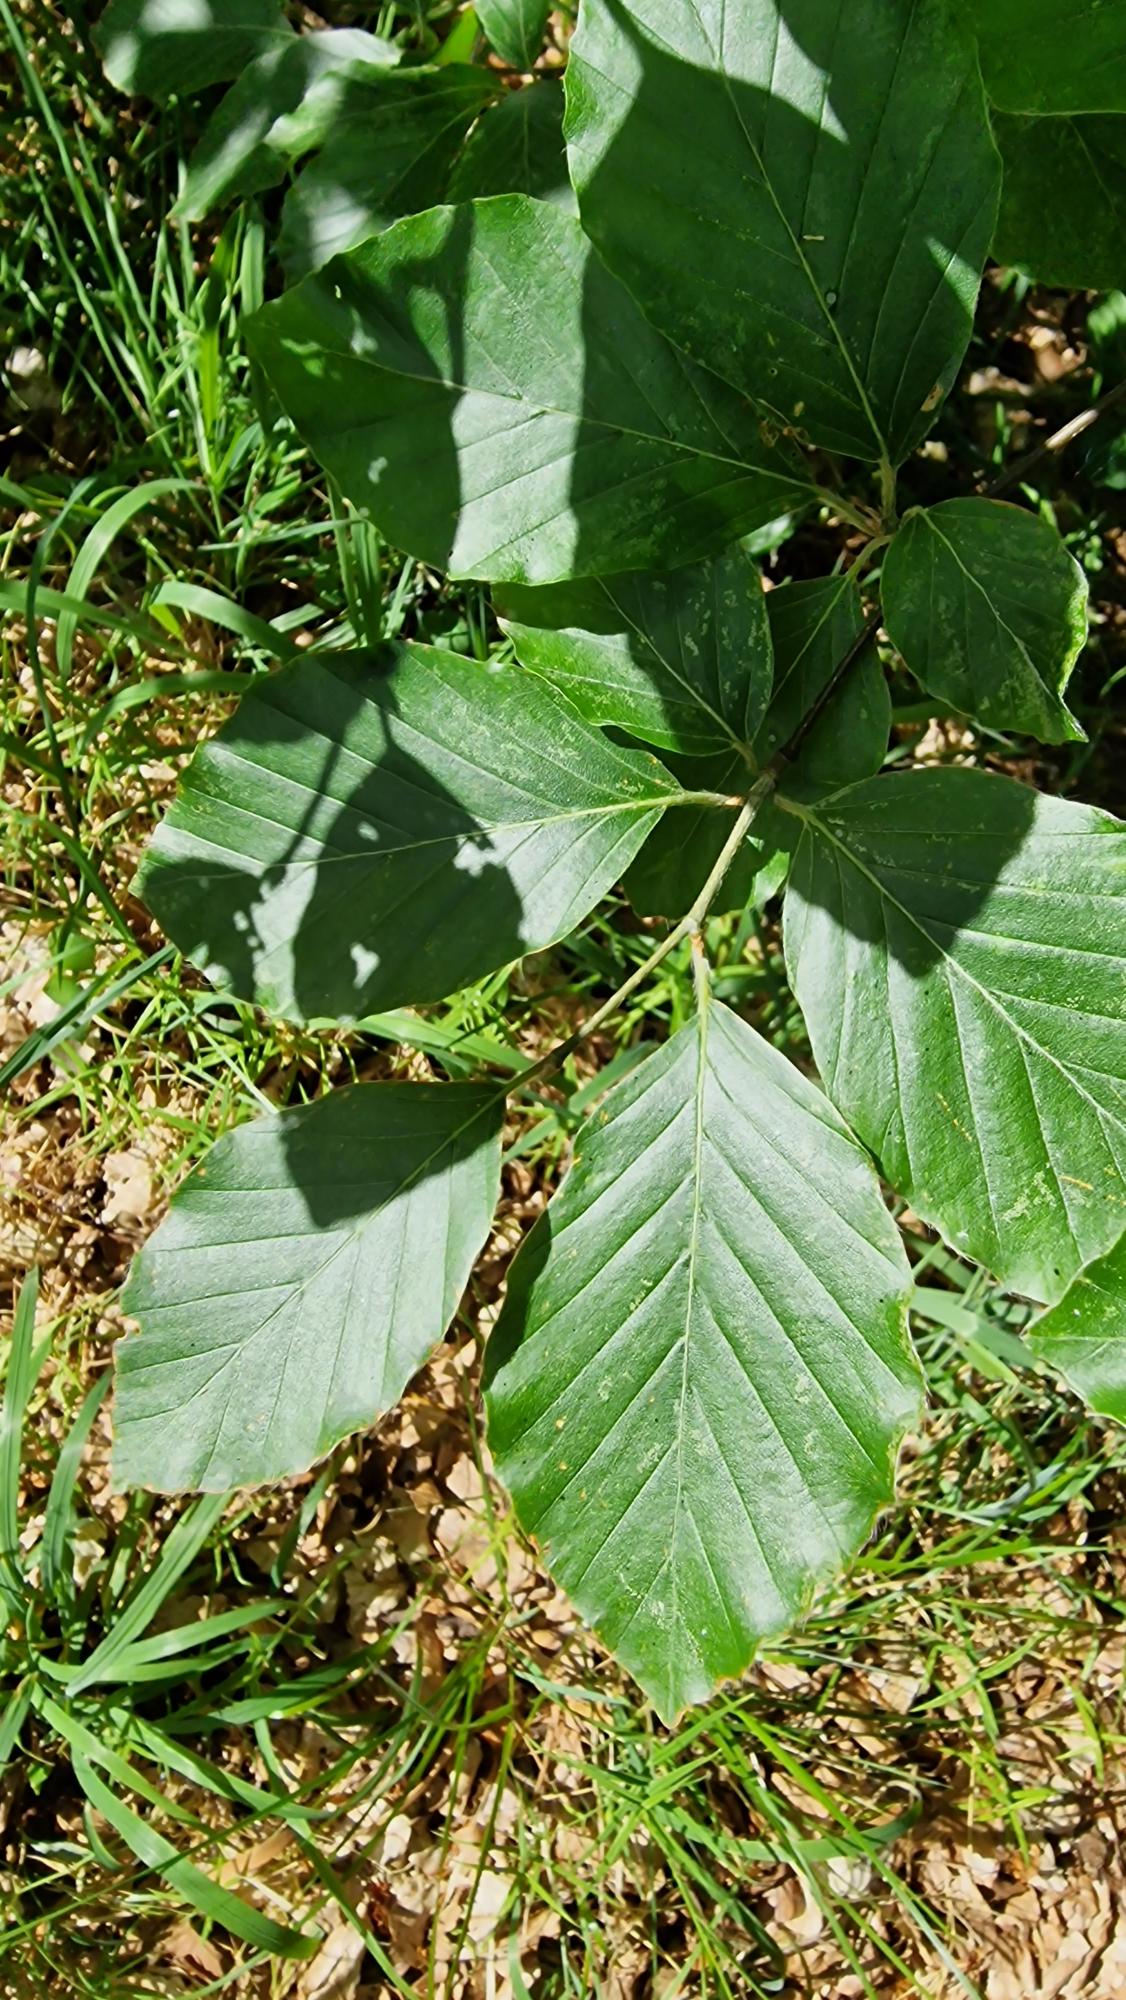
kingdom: Plantae
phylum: Tracheophyta
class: Magnoliopsida
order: Fagales
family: Fagaceae
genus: Fagus
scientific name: Fagus sylvatica
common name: Bøg
